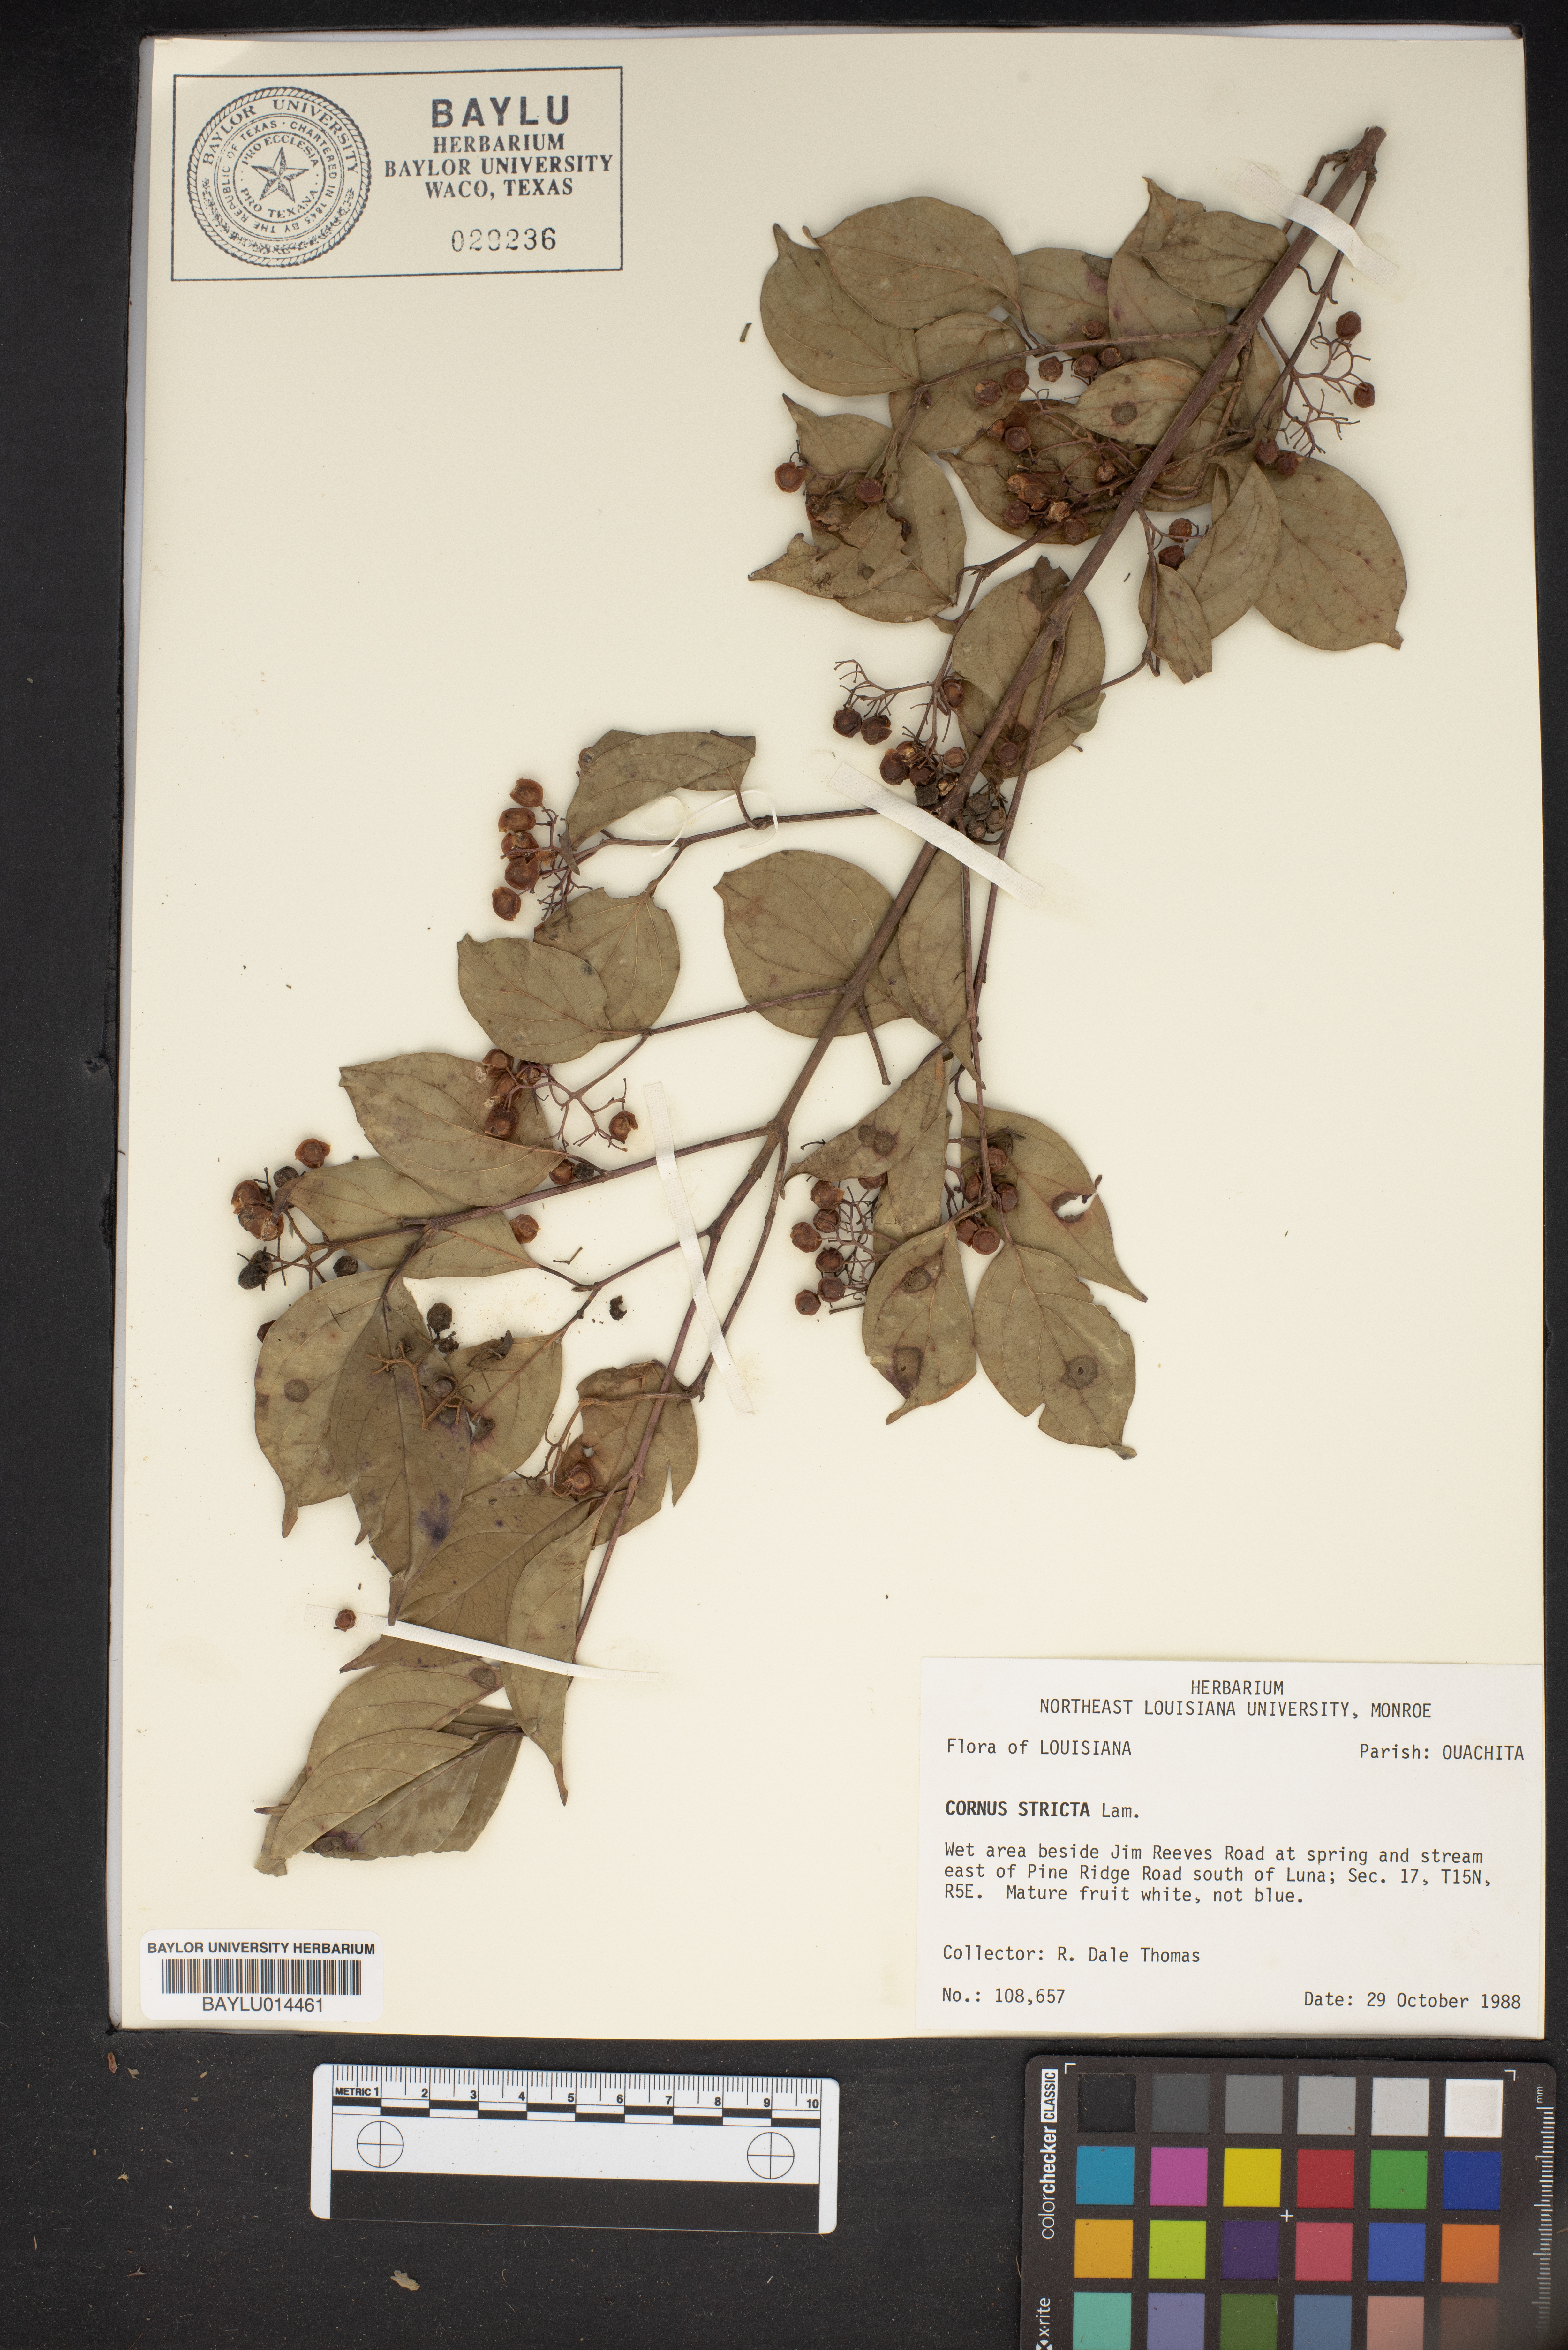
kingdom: Plantae
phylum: Tracheophyta
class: Magnoliopsida
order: Cornales
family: Cornaceae
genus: Cornus
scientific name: Cornus foemina
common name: Swamp dogwood
